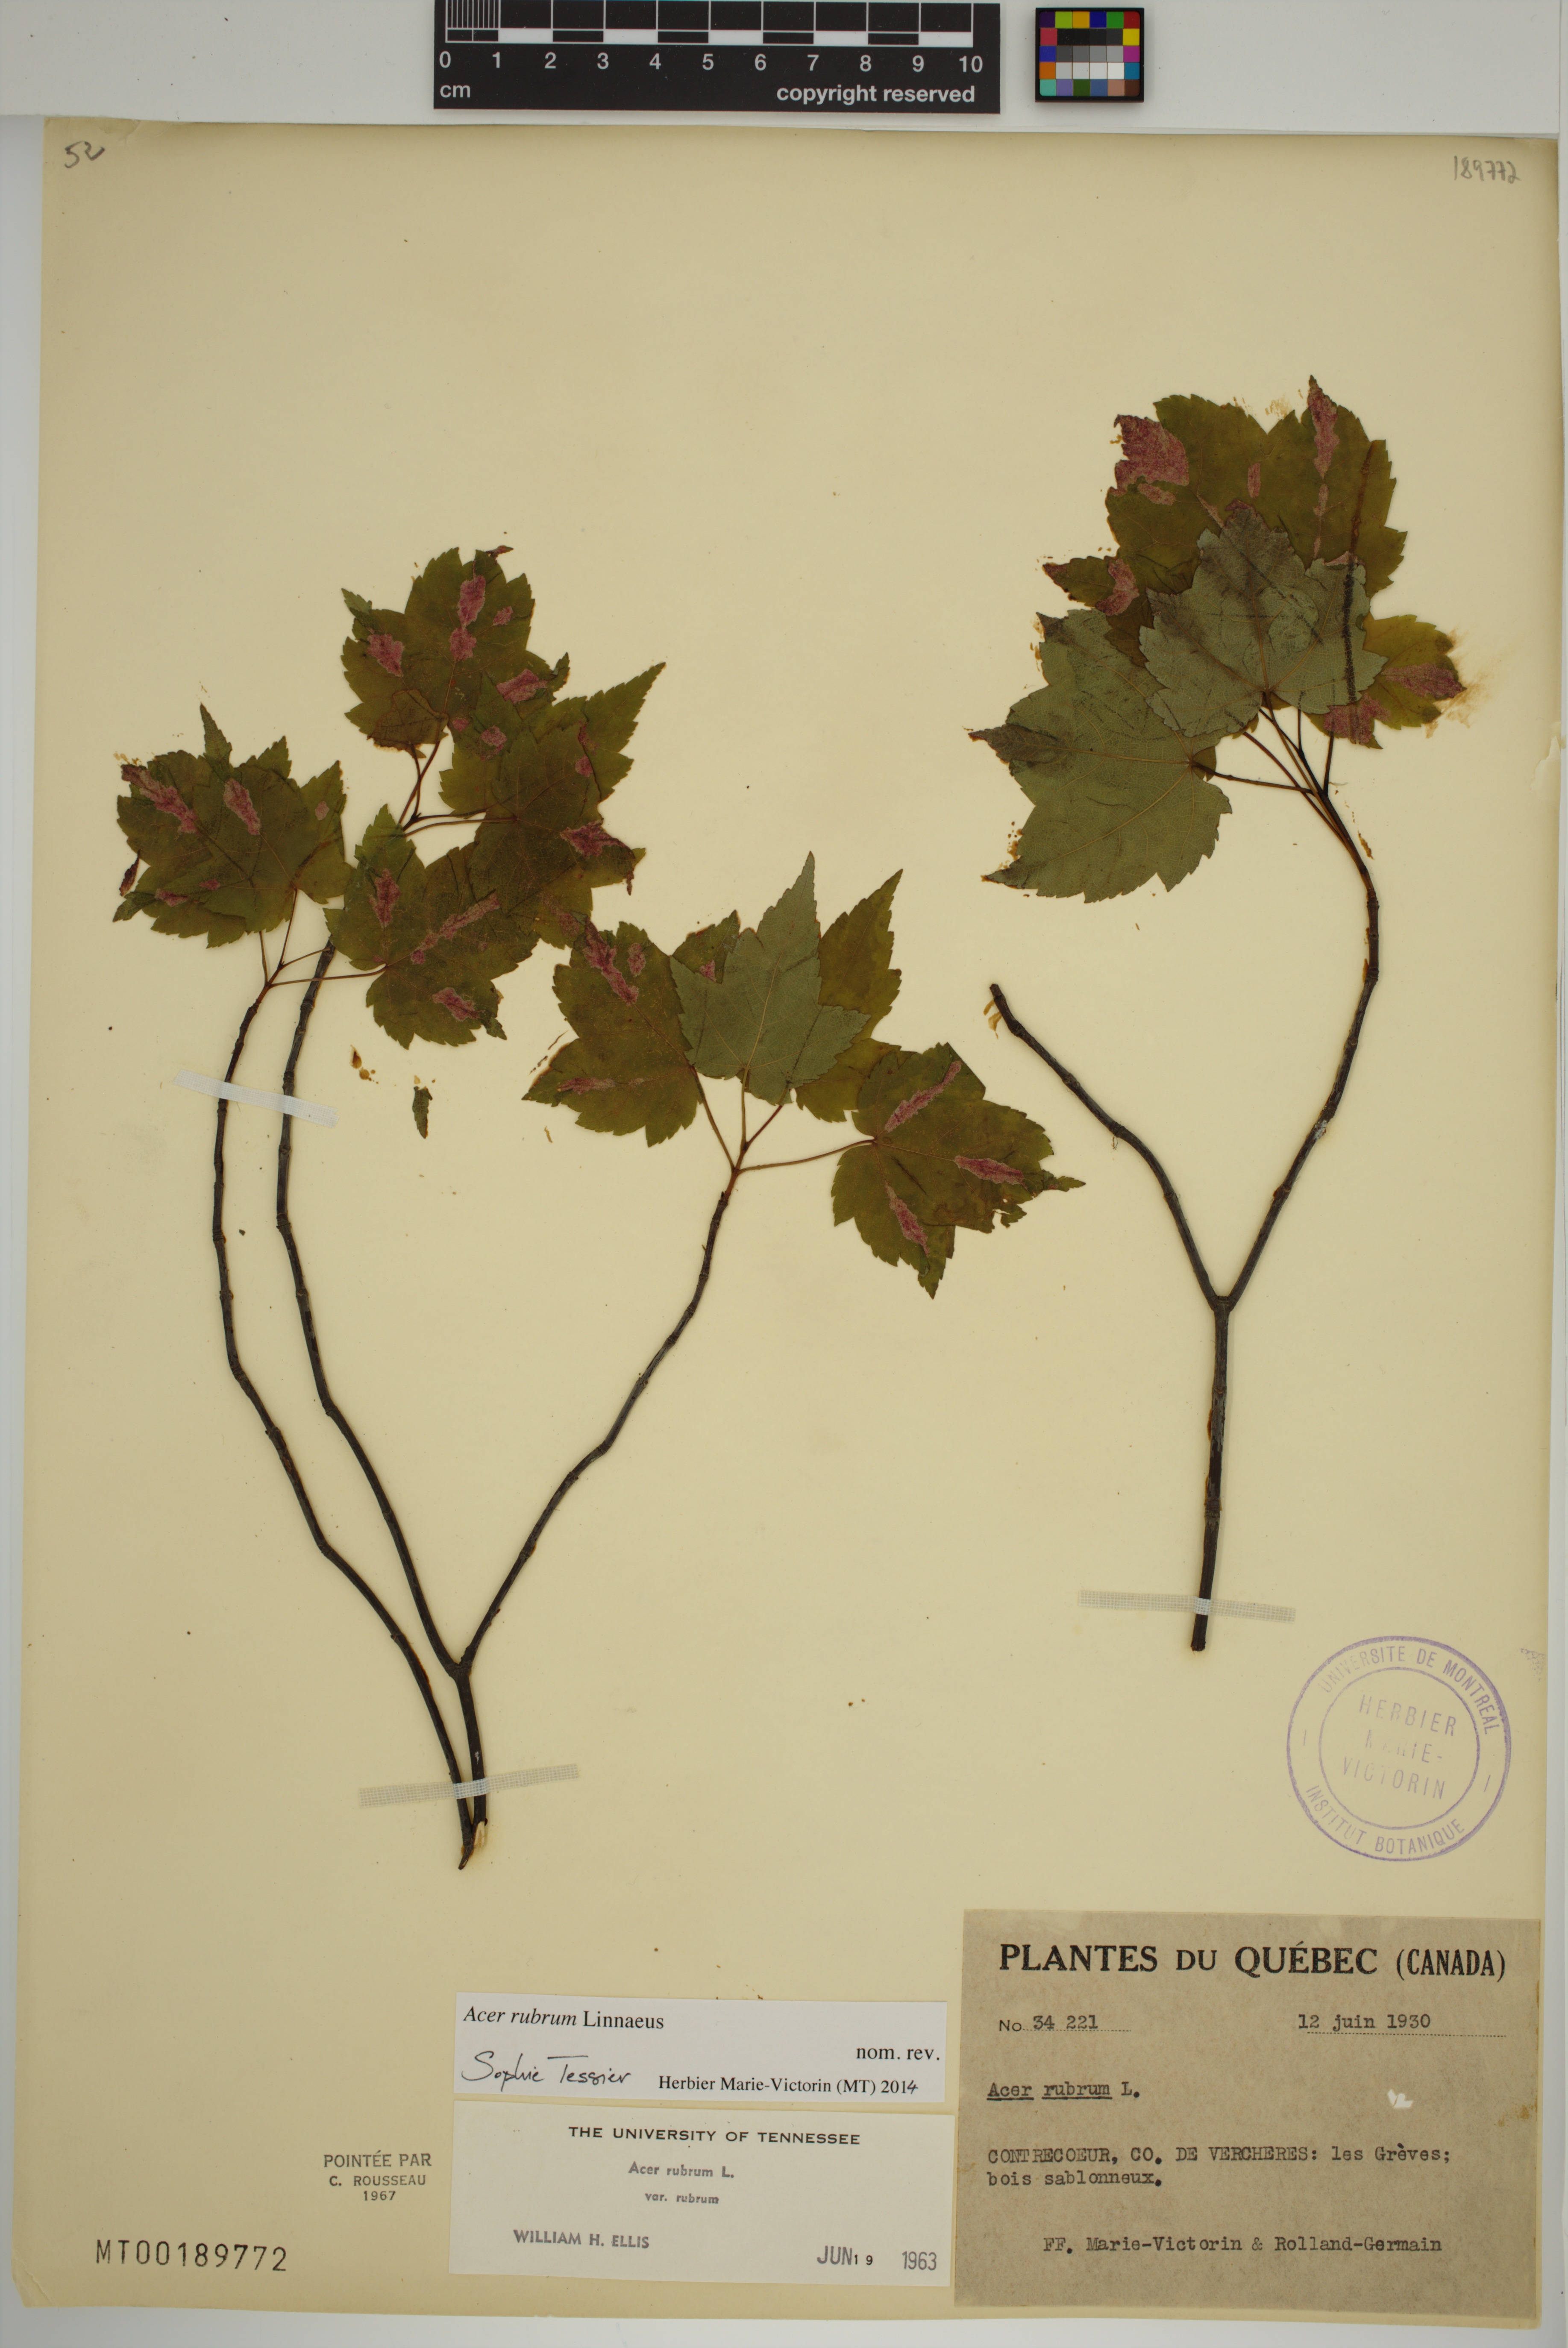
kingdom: Plantae
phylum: Tracheophyta
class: Magnoliopsida
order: Sapindales
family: Sapindaceae
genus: Acer
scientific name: Acer rubrum
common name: Red maple
